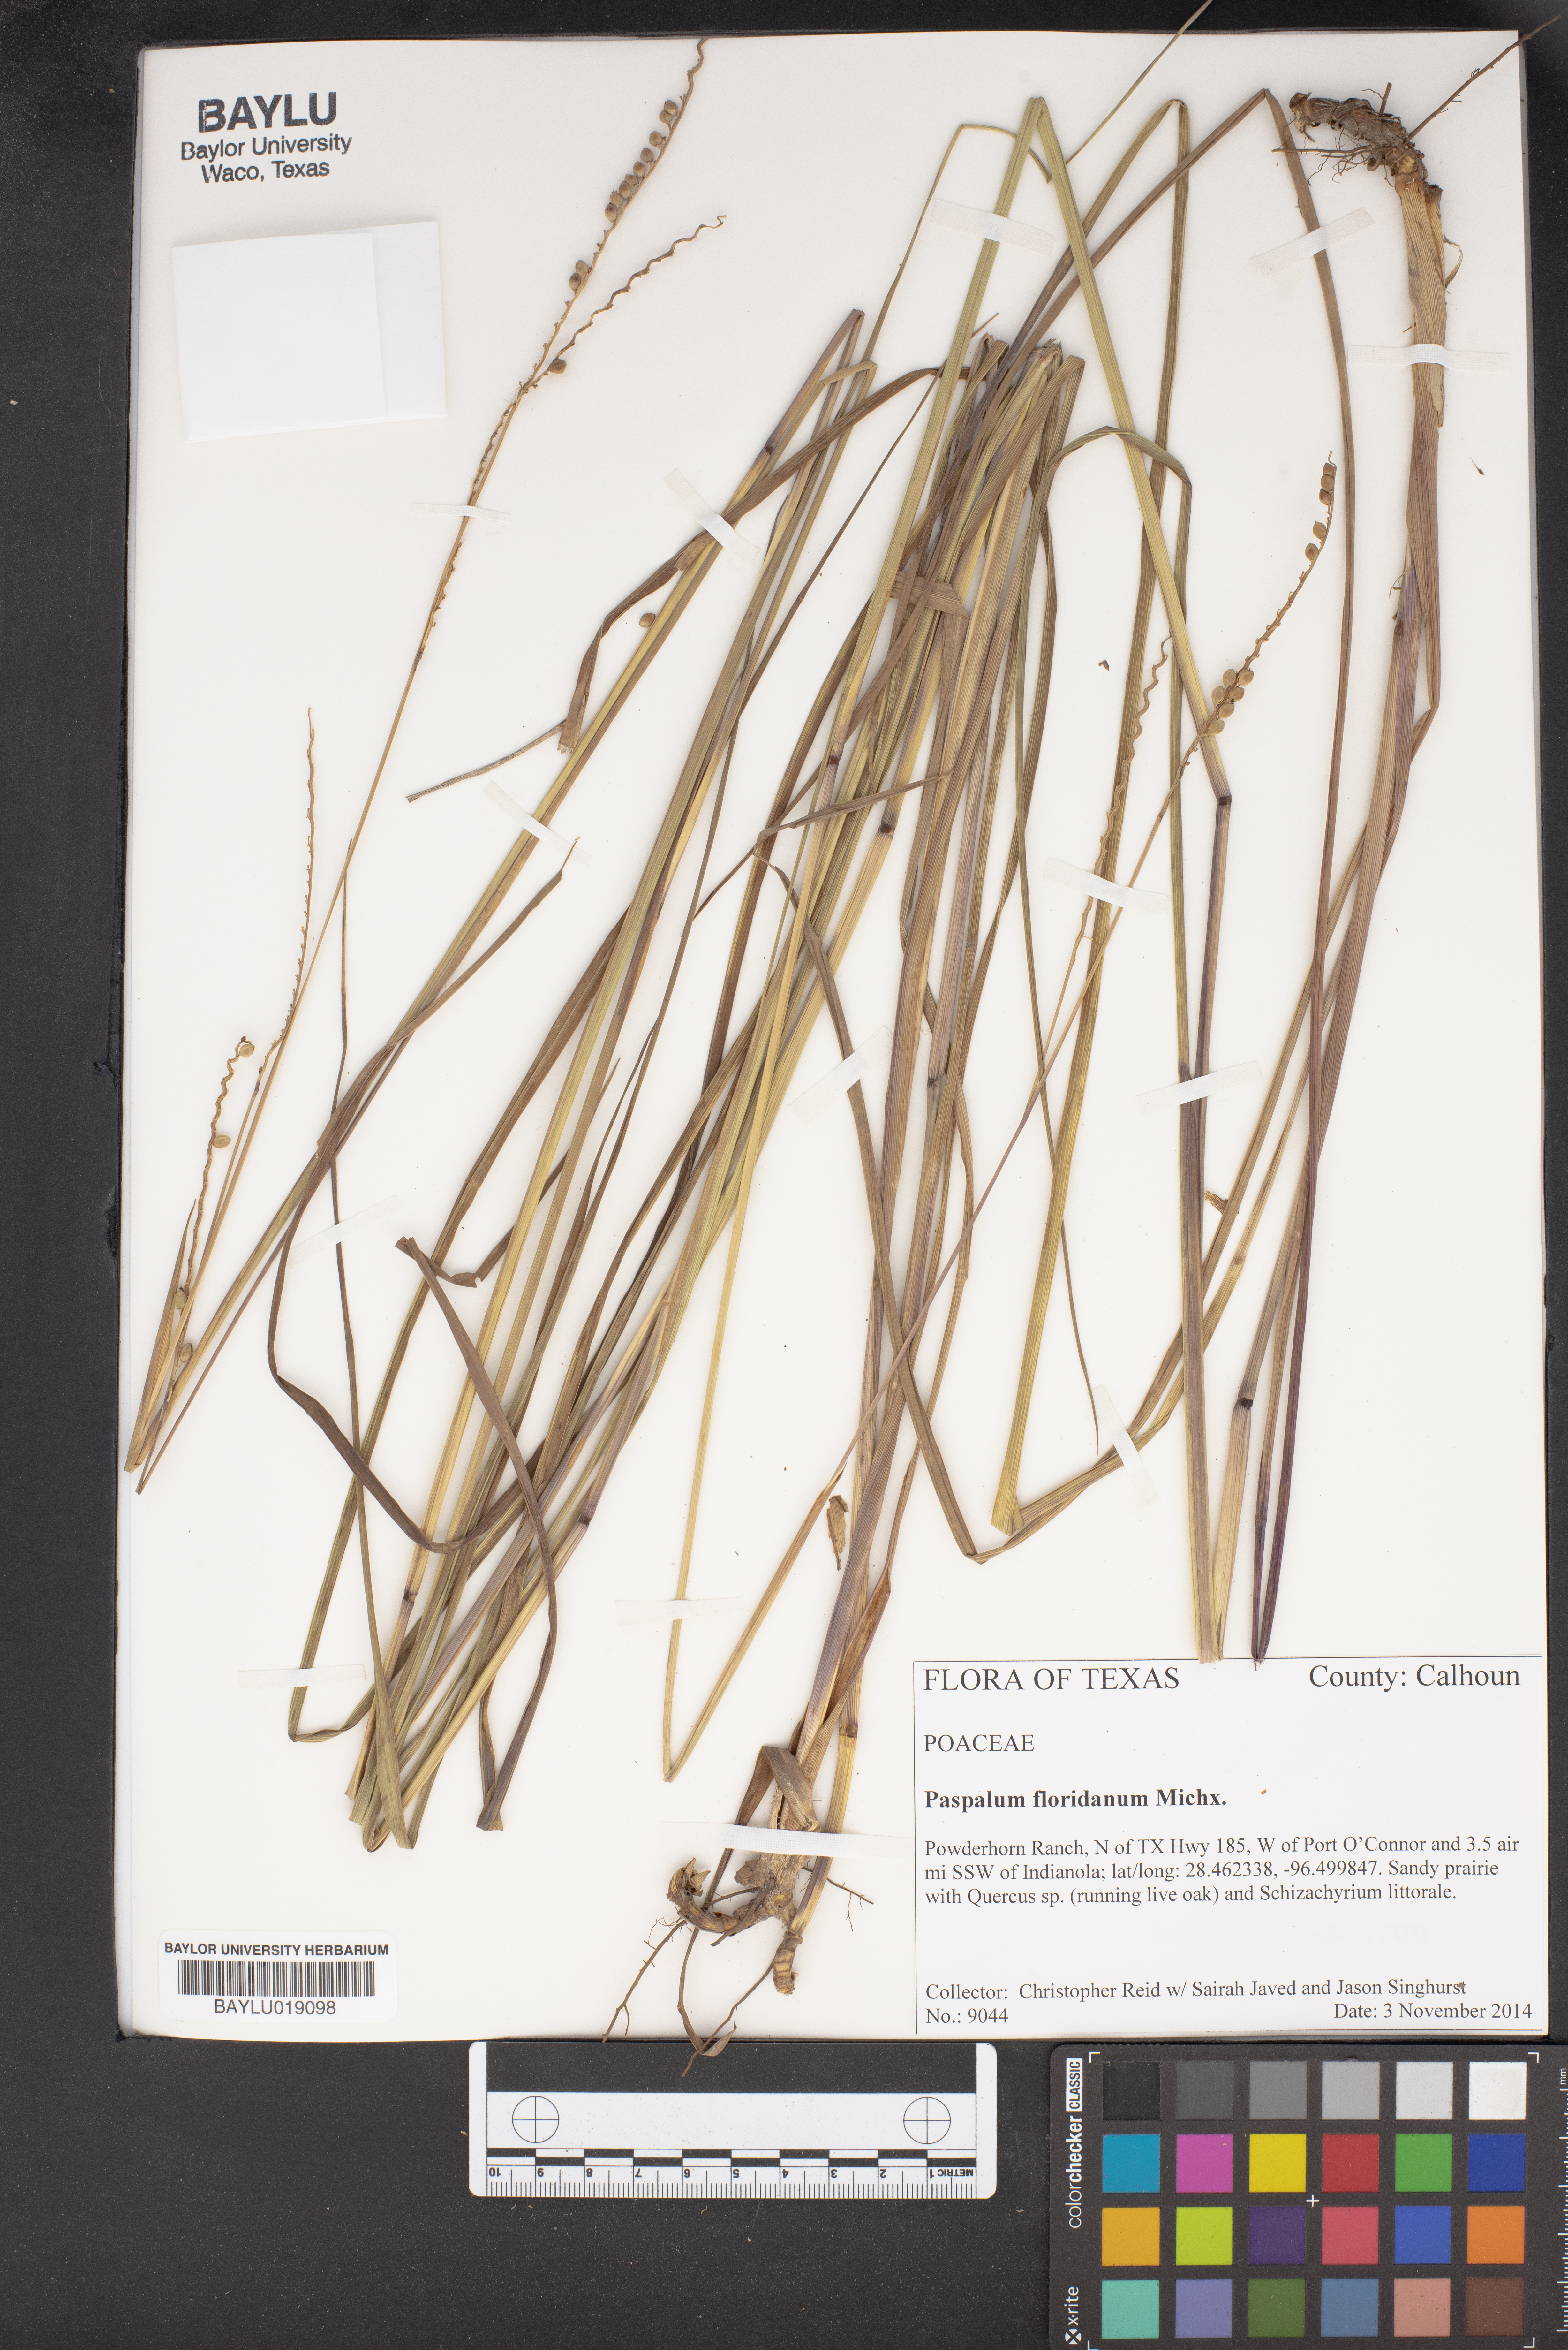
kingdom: Plantae
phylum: Tracheophyta
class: Liliopsida
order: Poales
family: Poaceae
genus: Paspalum
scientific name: Paspalum floridanum
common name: Florida paspalum
